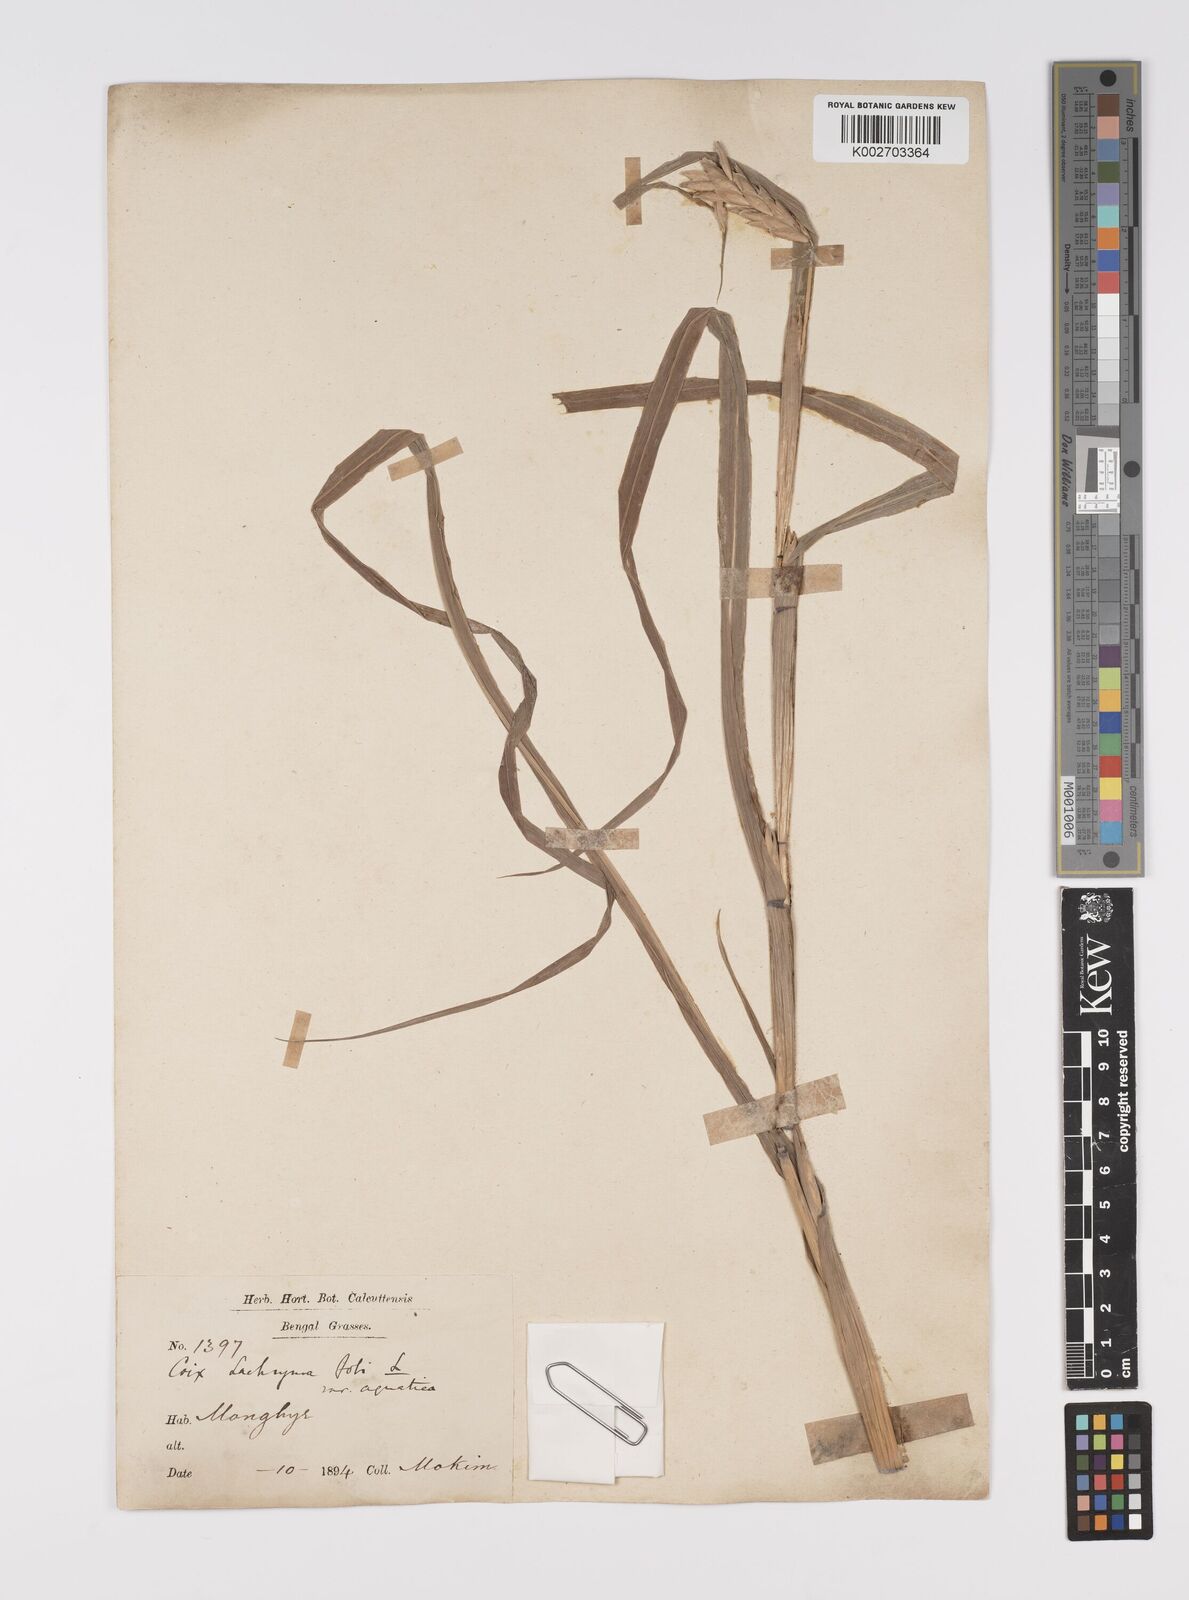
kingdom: Plantae
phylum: Tracheophyta
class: Liliopsida
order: Poales
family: Poaceae
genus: Coix
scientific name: Coix lacryma-jobi
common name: Job's tears
